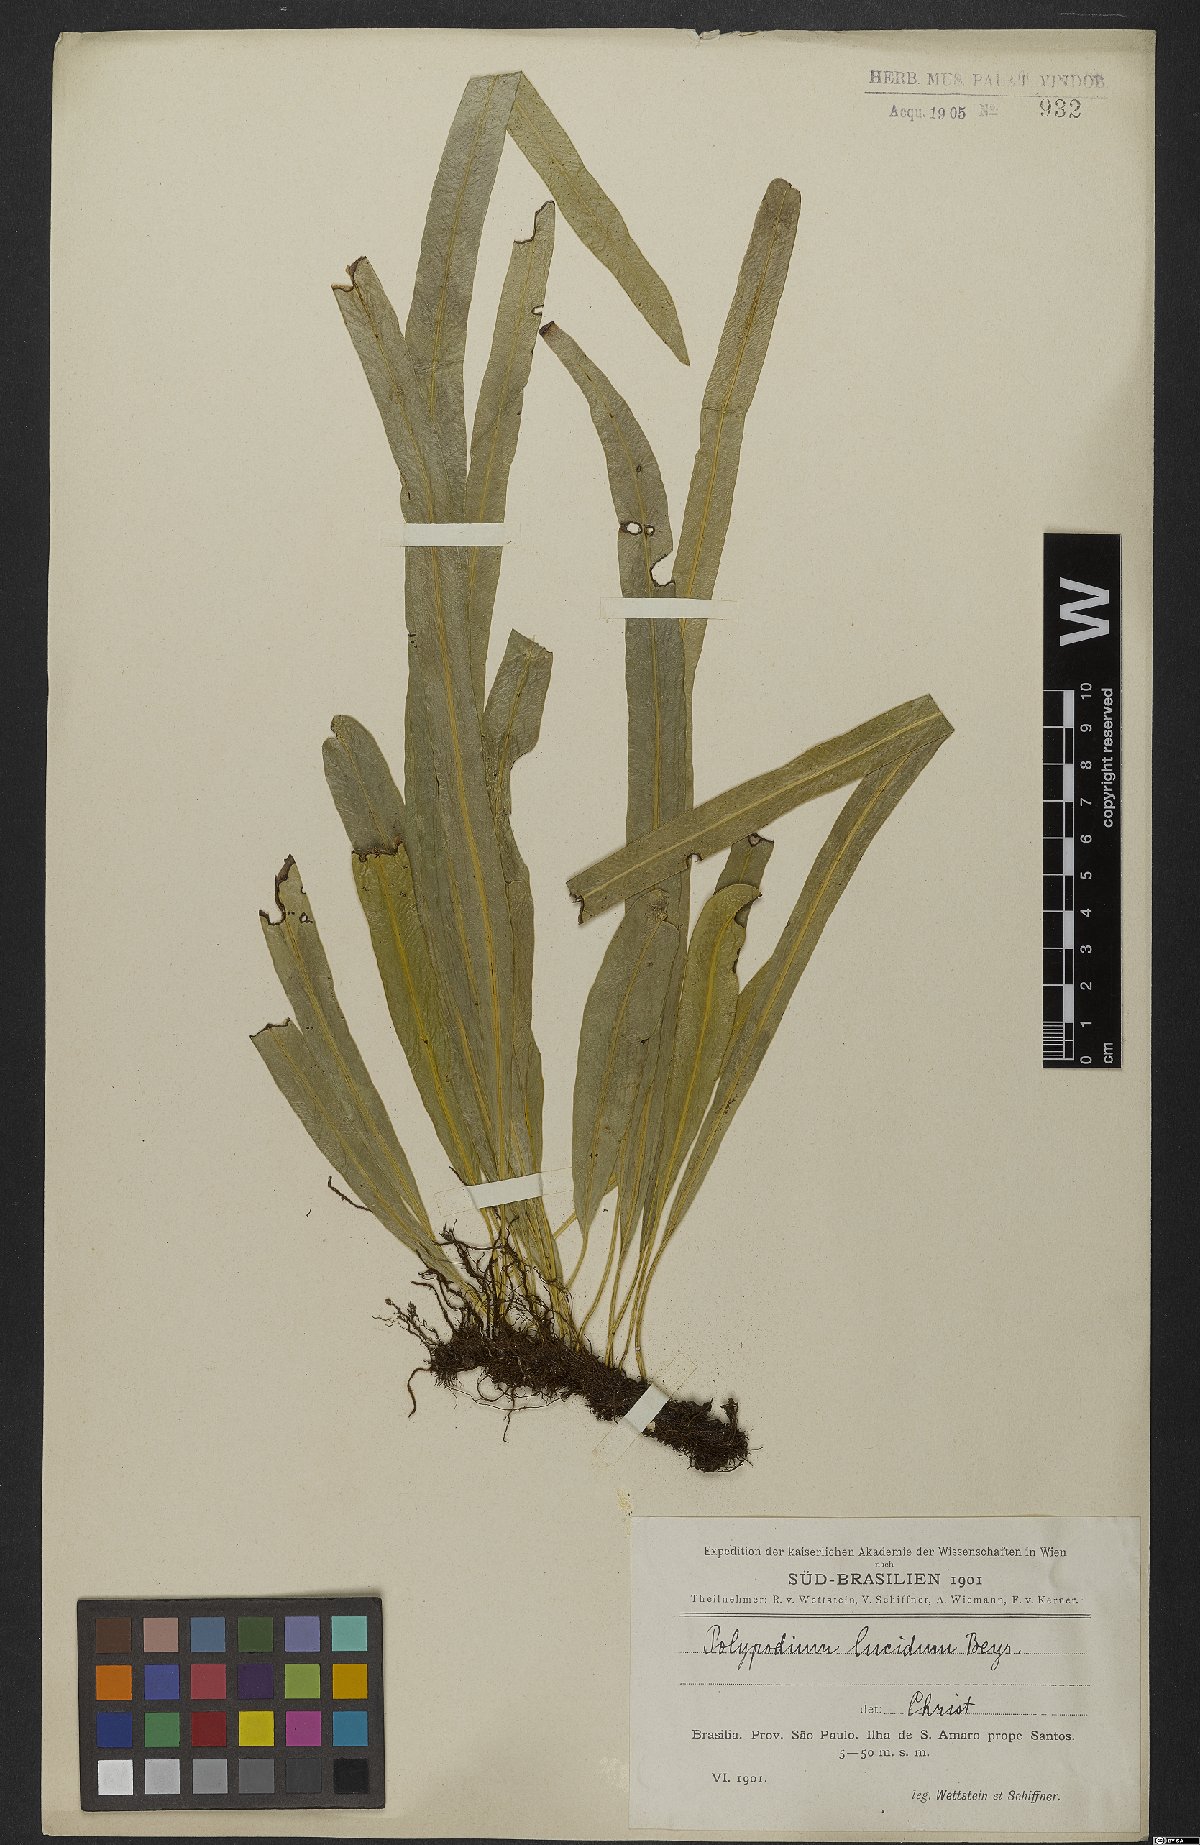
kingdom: Plantae
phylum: Tracheophyta
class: Polypodiopsida
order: Polypodiales
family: Polypodiaceae
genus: Campyloneurum
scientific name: Campyloneurum angustifolium
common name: Narrow-leaf strap fern
